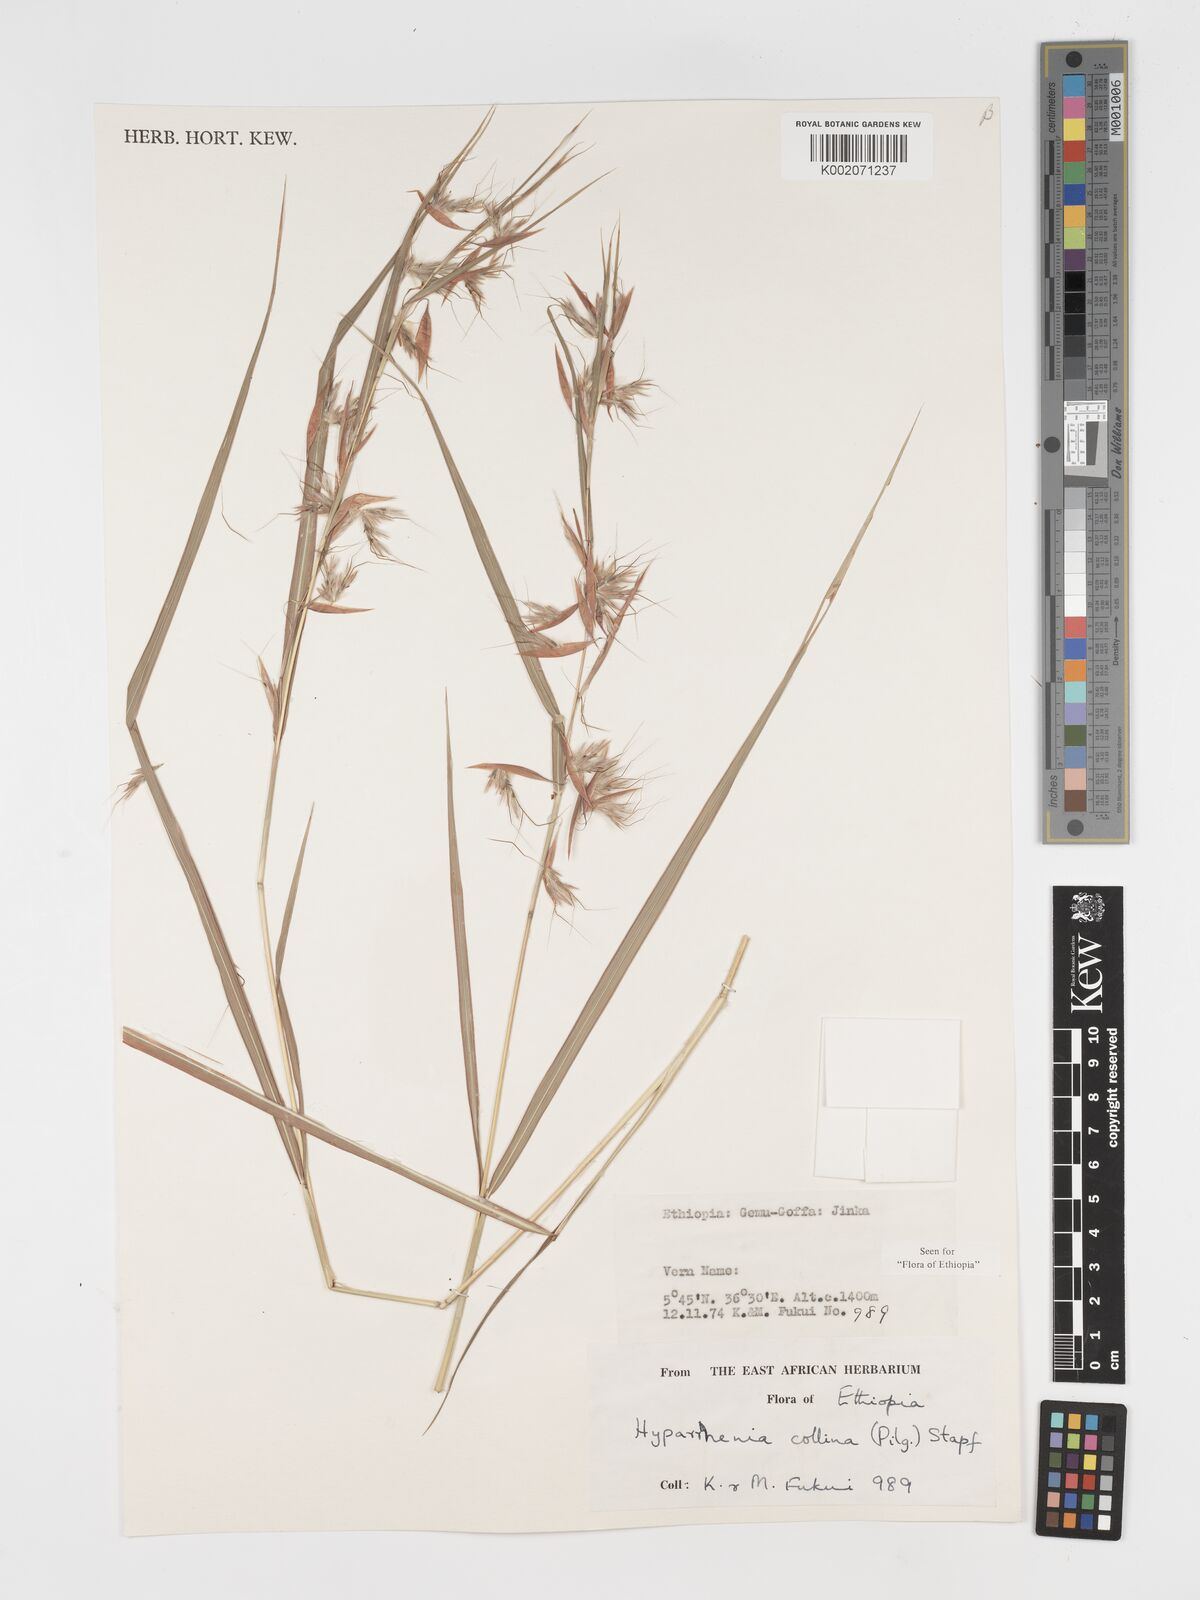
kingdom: Plantae
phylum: Tracheophyta
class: Liliopsida
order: Poales
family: Poaceae
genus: Hyparrhenia
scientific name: Hyparrhenia collina
